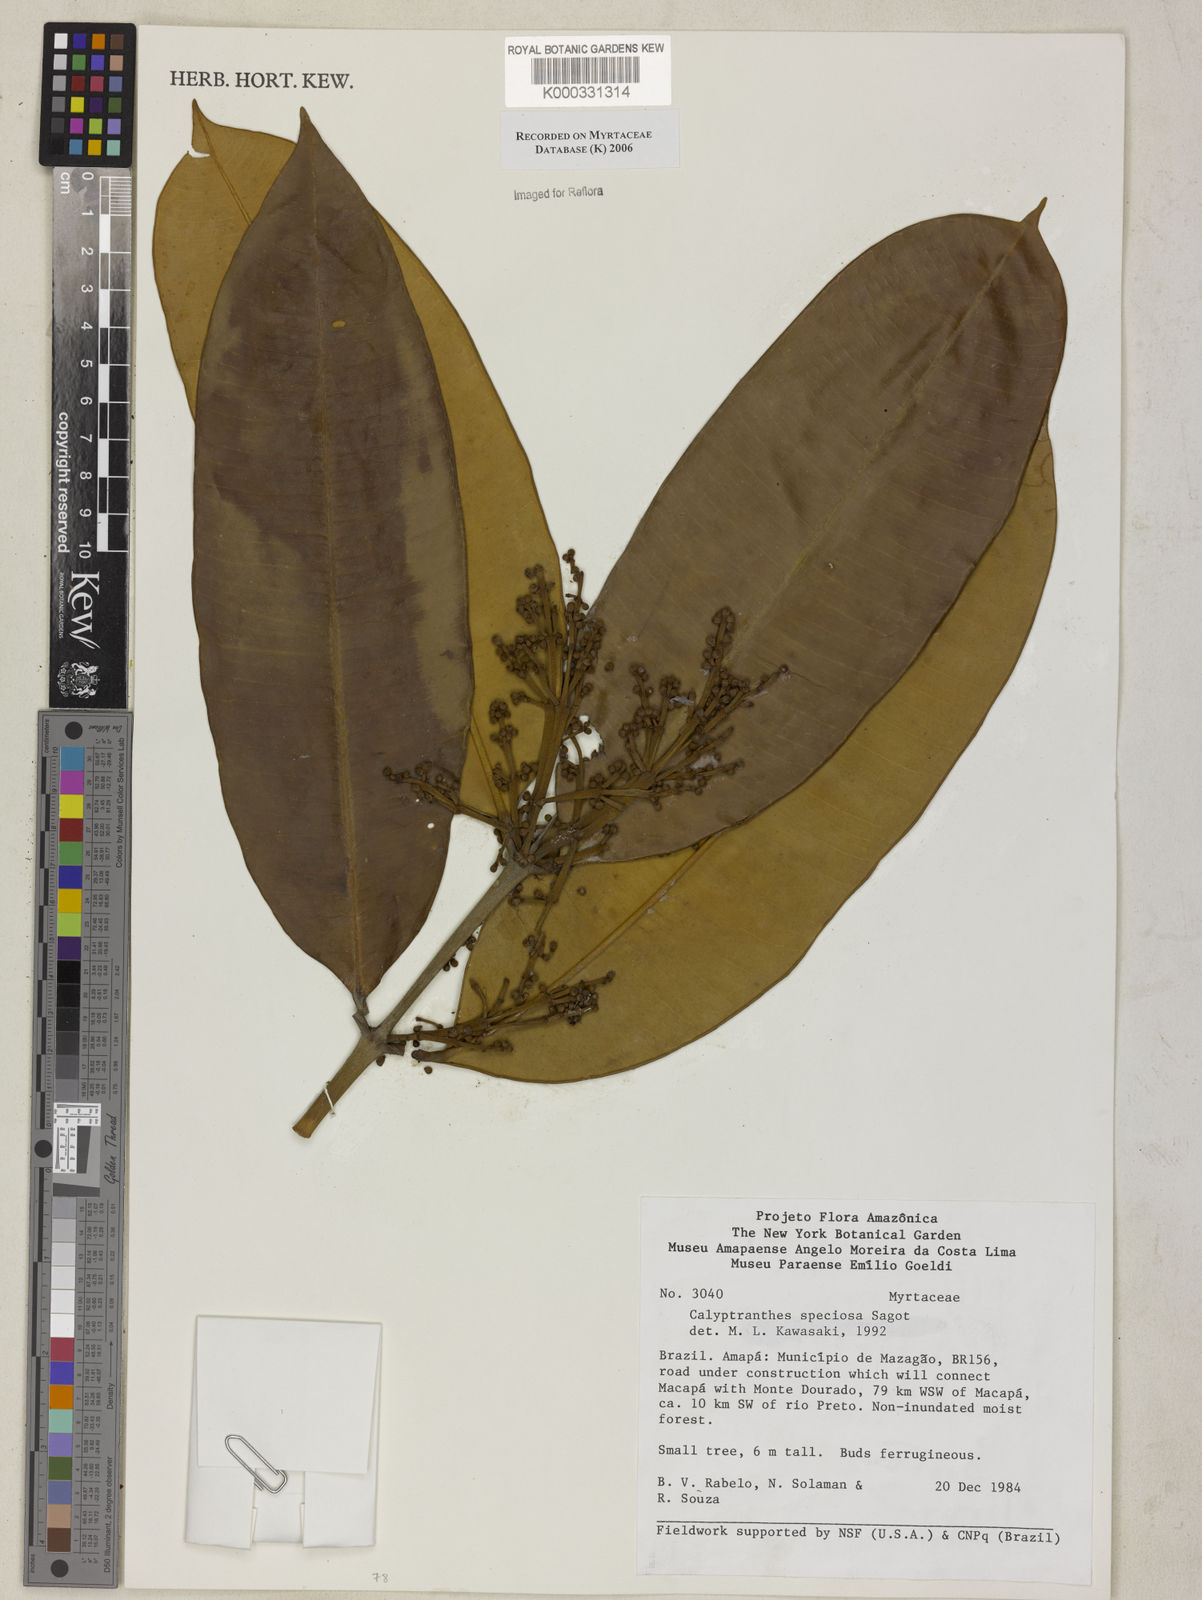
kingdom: Plantae
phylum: Tracheophyta
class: Magnoliopsida
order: Myrtales
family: Myrtaceae
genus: Myrcia
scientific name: Myrcia neospeciosa
